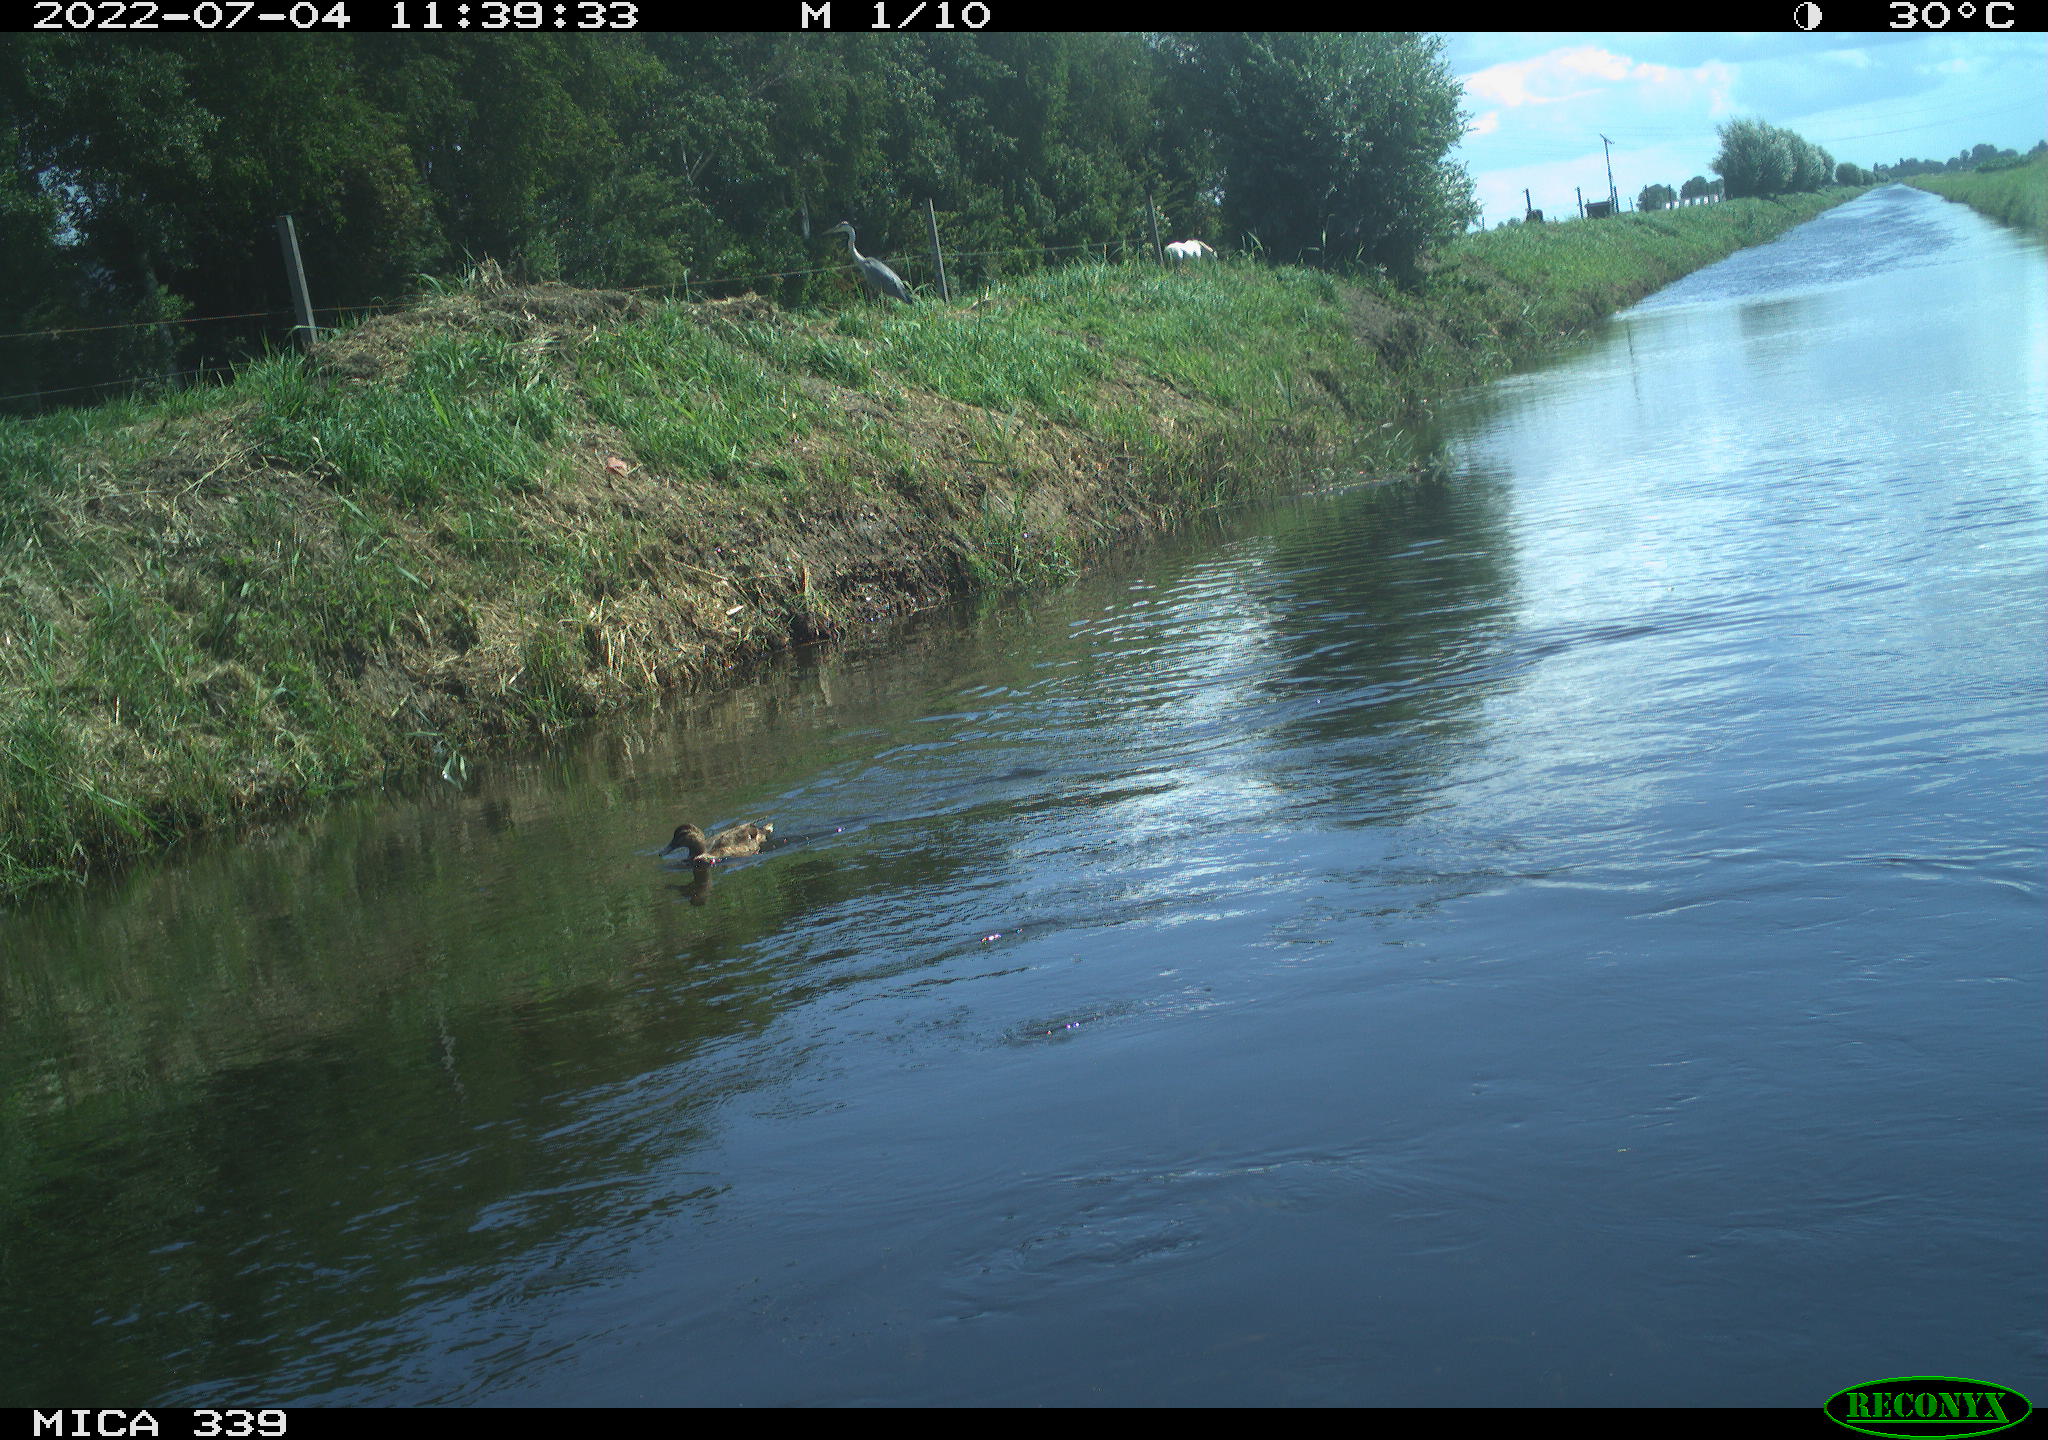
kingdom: Animalia
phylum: Chordata
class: Aves
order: Anseriformes
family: Anatidae
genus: Anas
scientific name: Anas platyrhynchos
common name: Mallard
